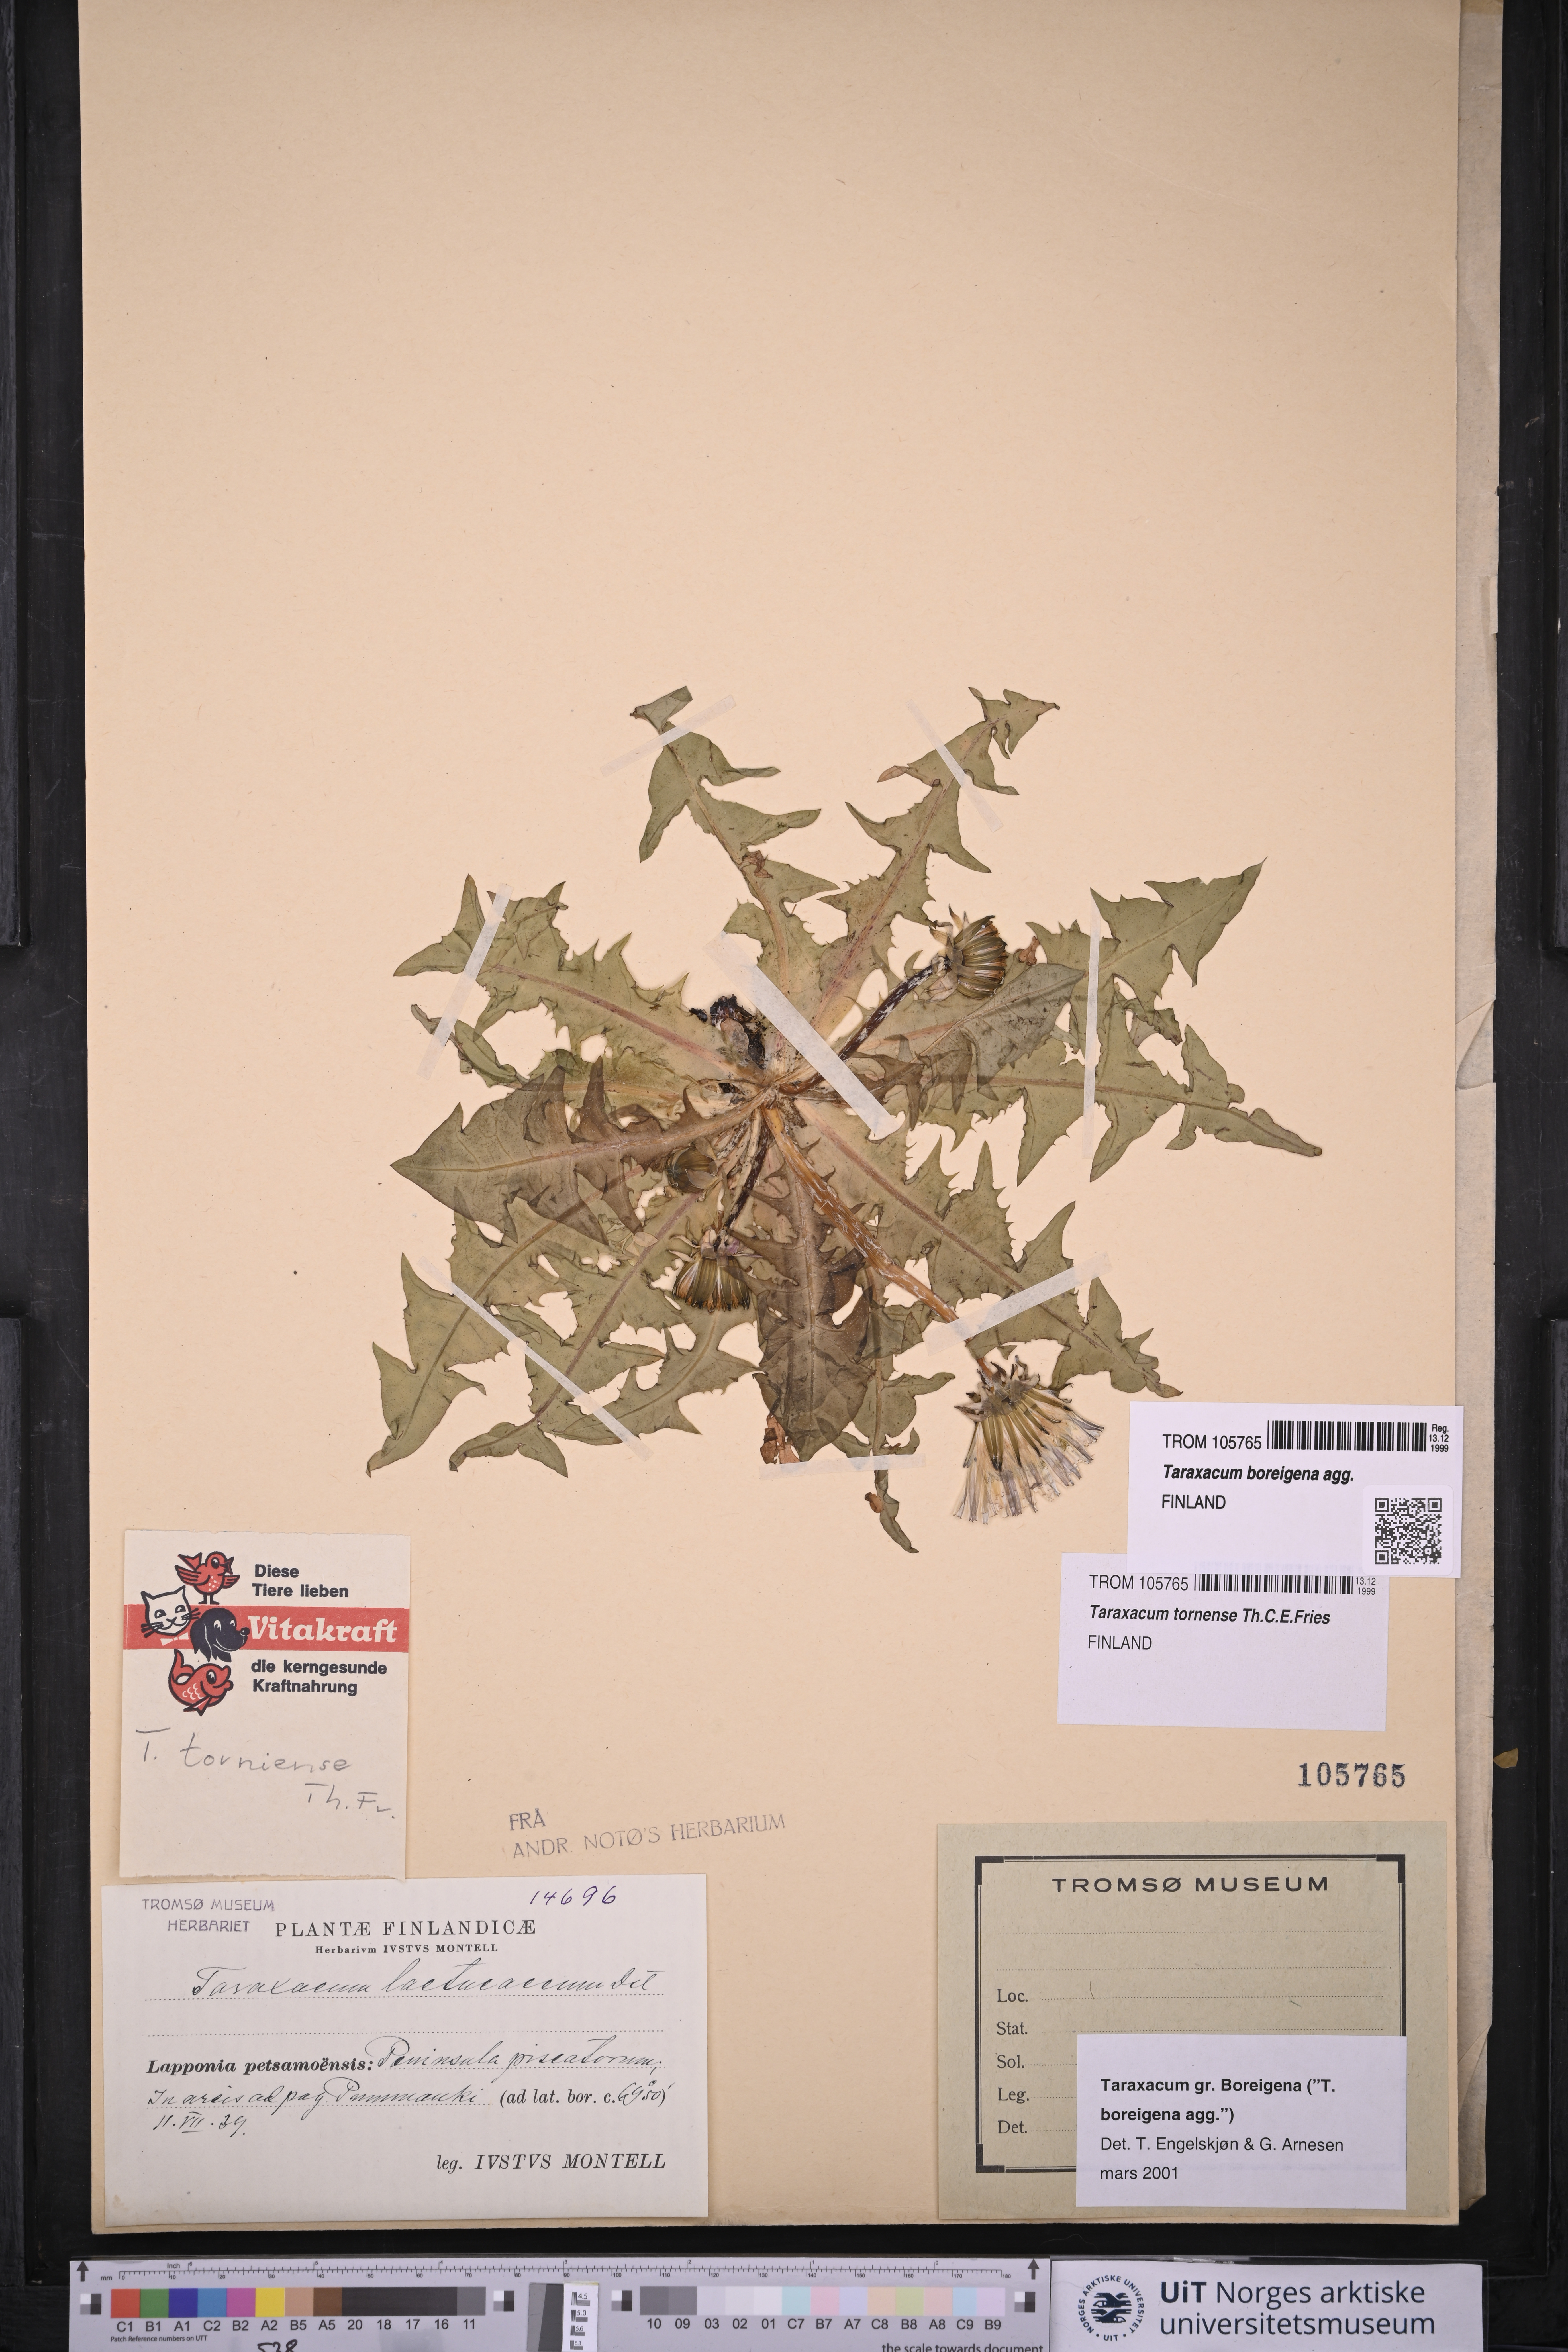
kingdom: Plantae
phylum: Tracheophyta
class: Magnoliopsida
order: Asterales
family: Asteraceae
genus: Taraxacum
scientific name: Taraxacum
